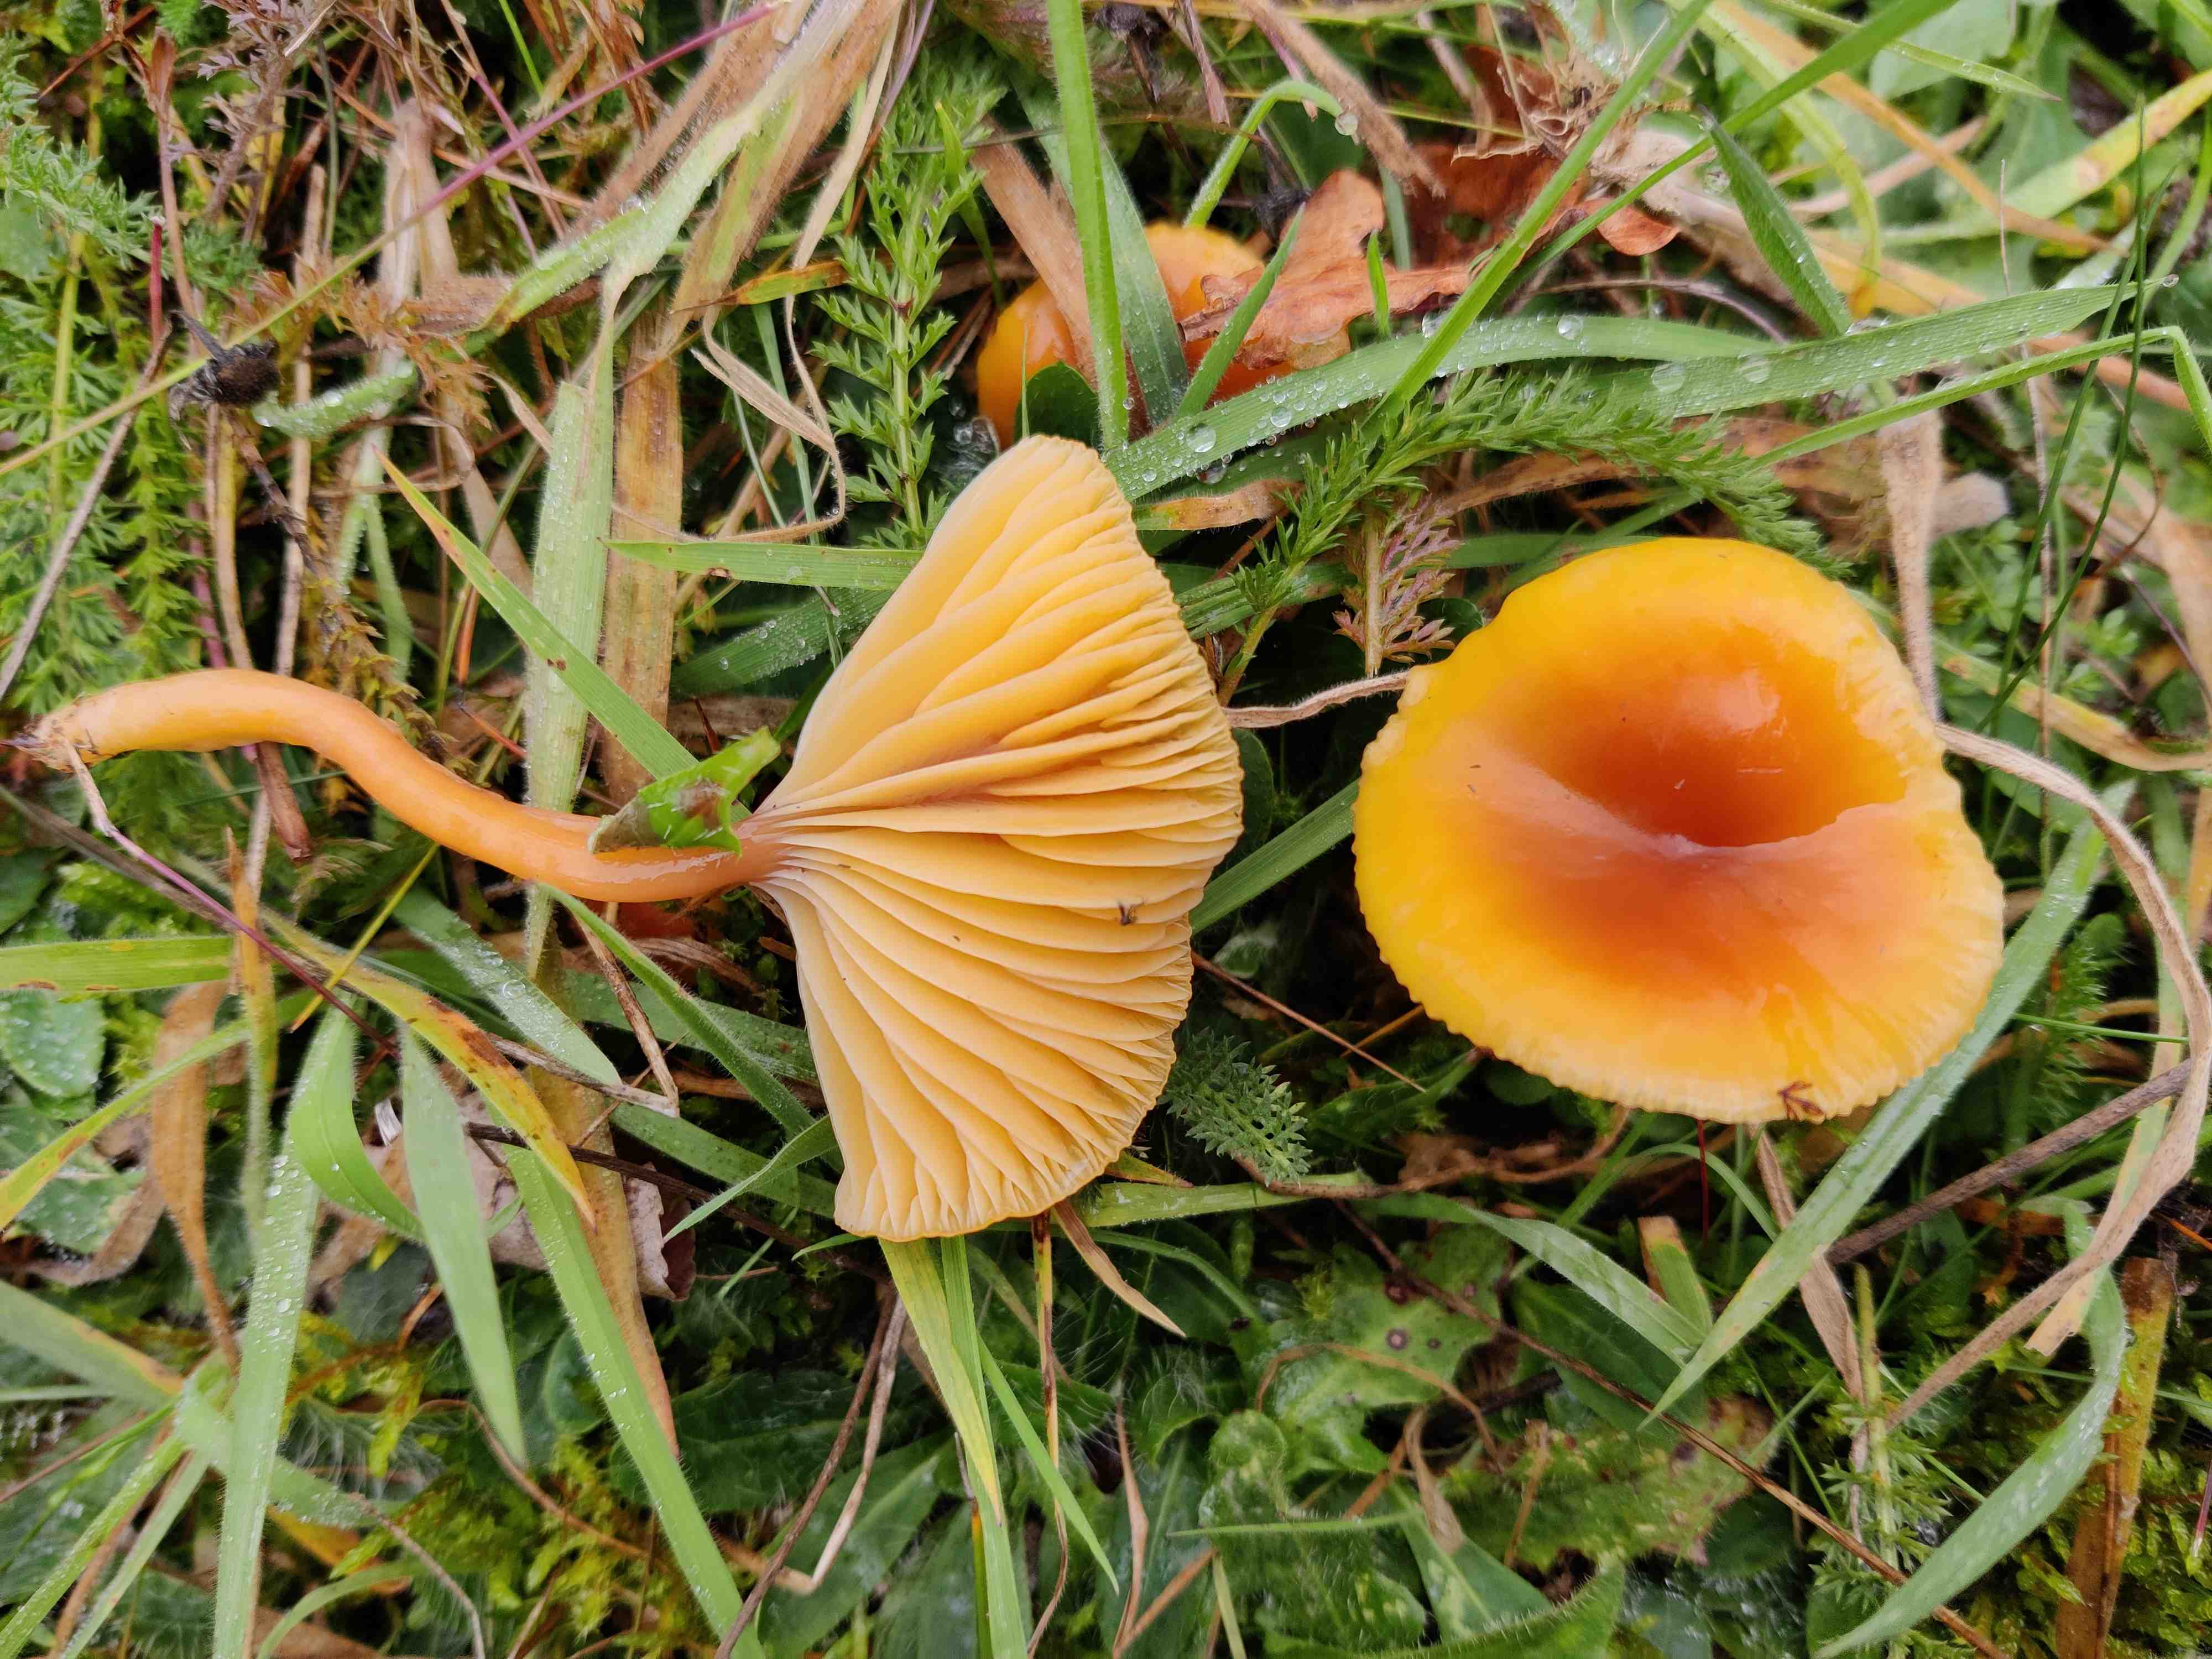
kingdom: Fungi
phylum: Basidiomycota
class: Agaricomycetes
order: Agaricales
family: Hygrophoraceae
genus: Gliophorus
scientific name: Gliophorus laetus
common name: brusk-vokshat
